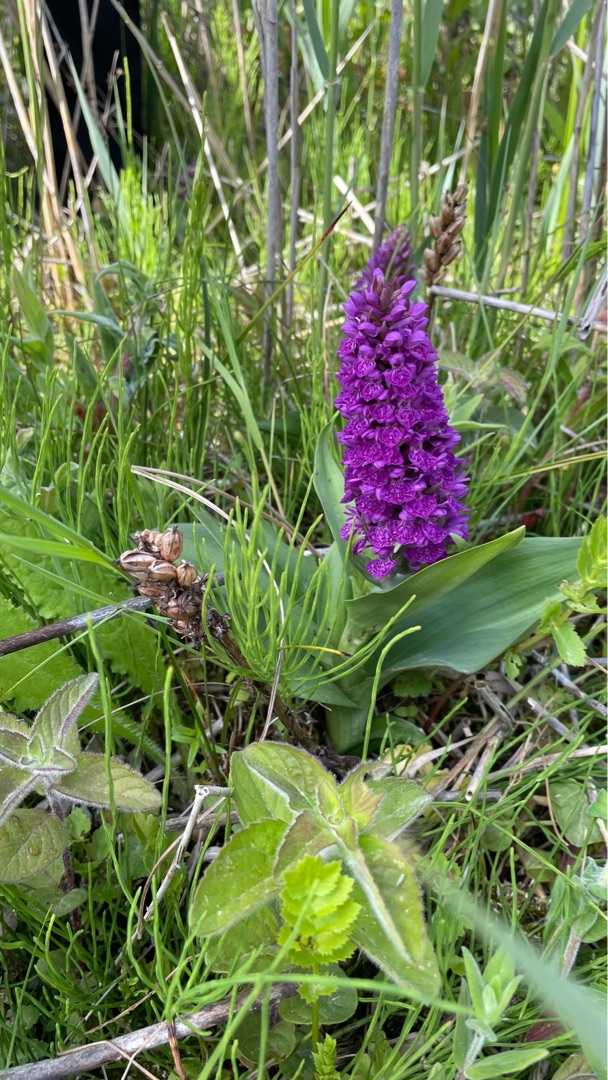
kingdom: Plantae
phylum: Tracheophyta
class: Liliopsida
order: Asparagales
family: Orchidaceae
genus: Dactylorhiza
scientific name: Dactylorhiza majalis
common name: Purpur-gøgeurt
